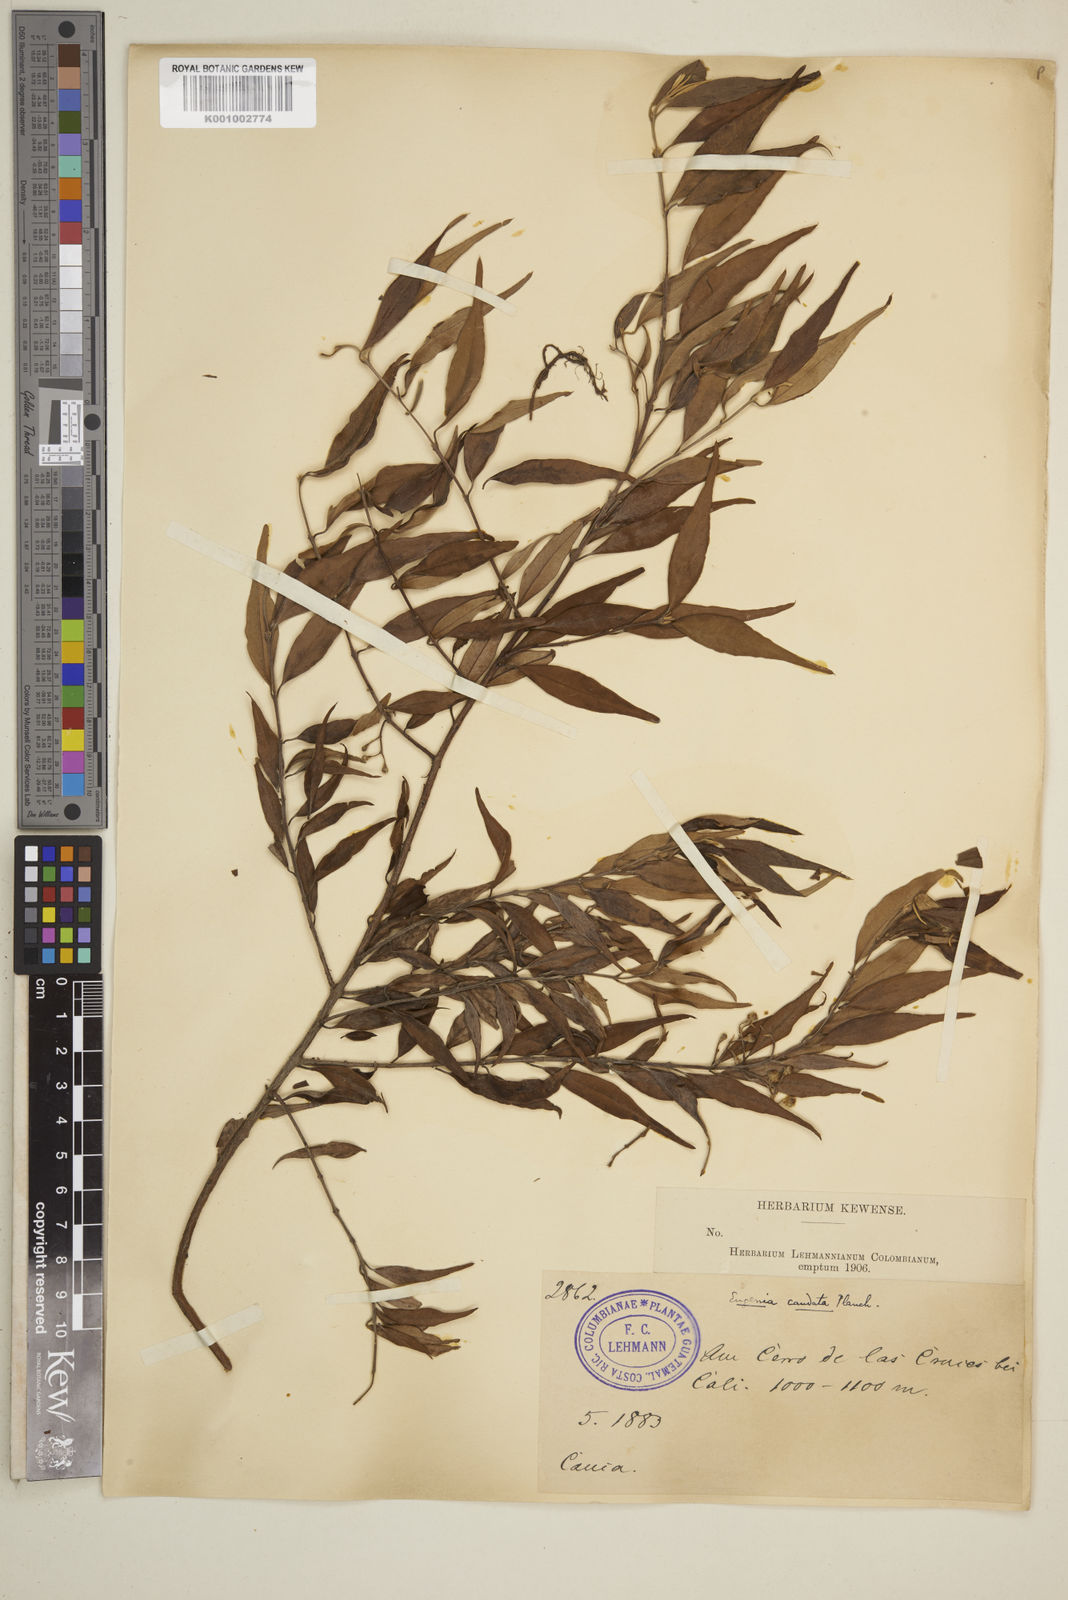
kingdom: Plantae
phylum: Tracheophyta
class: Magnoliopsida
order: Myrtales
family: Myrtaceae
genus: Syzygium
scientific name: Syzygium urophyllum
